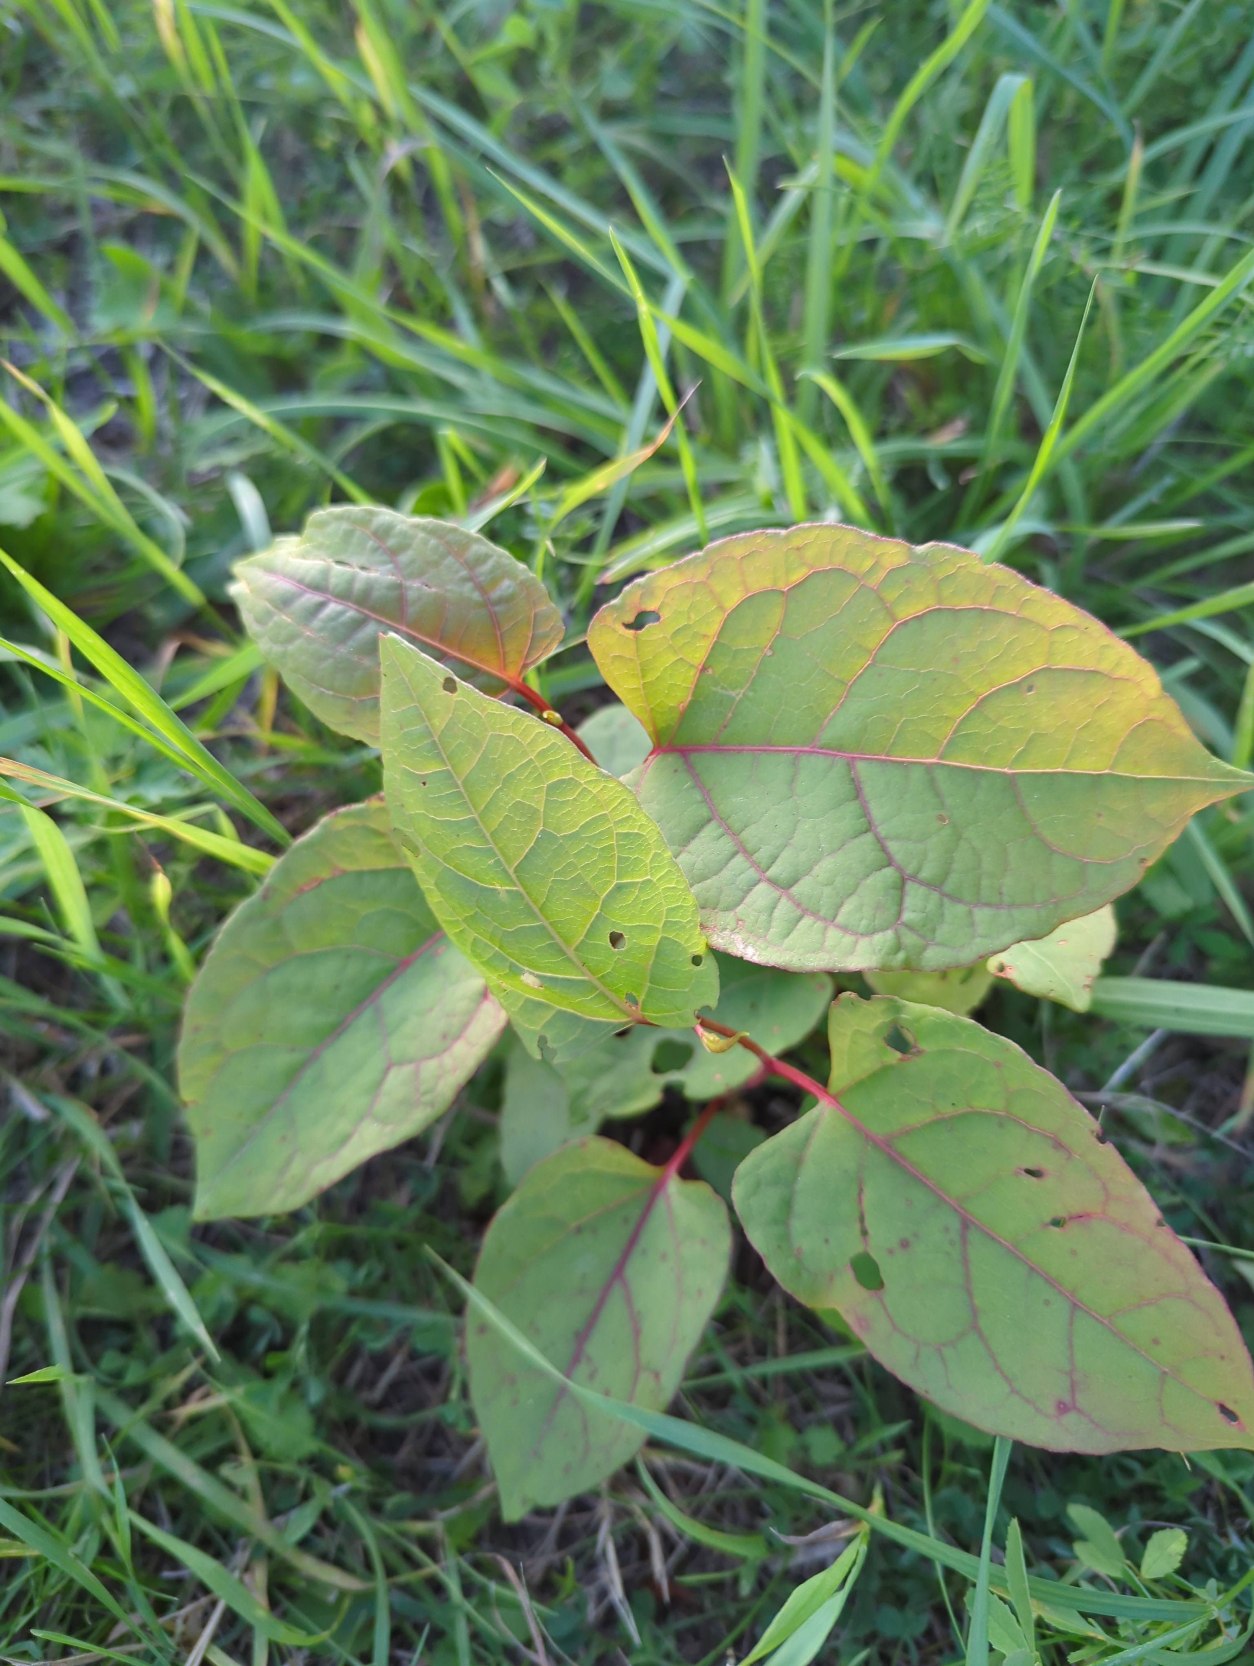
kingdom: Plantae
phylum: Tracheophyta
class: Magnoliopsida
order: Caryophyllales
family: Polygonaceae
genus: Reynoutria
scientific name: Reynoutria bohemica
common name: Hybrid-pileurt
